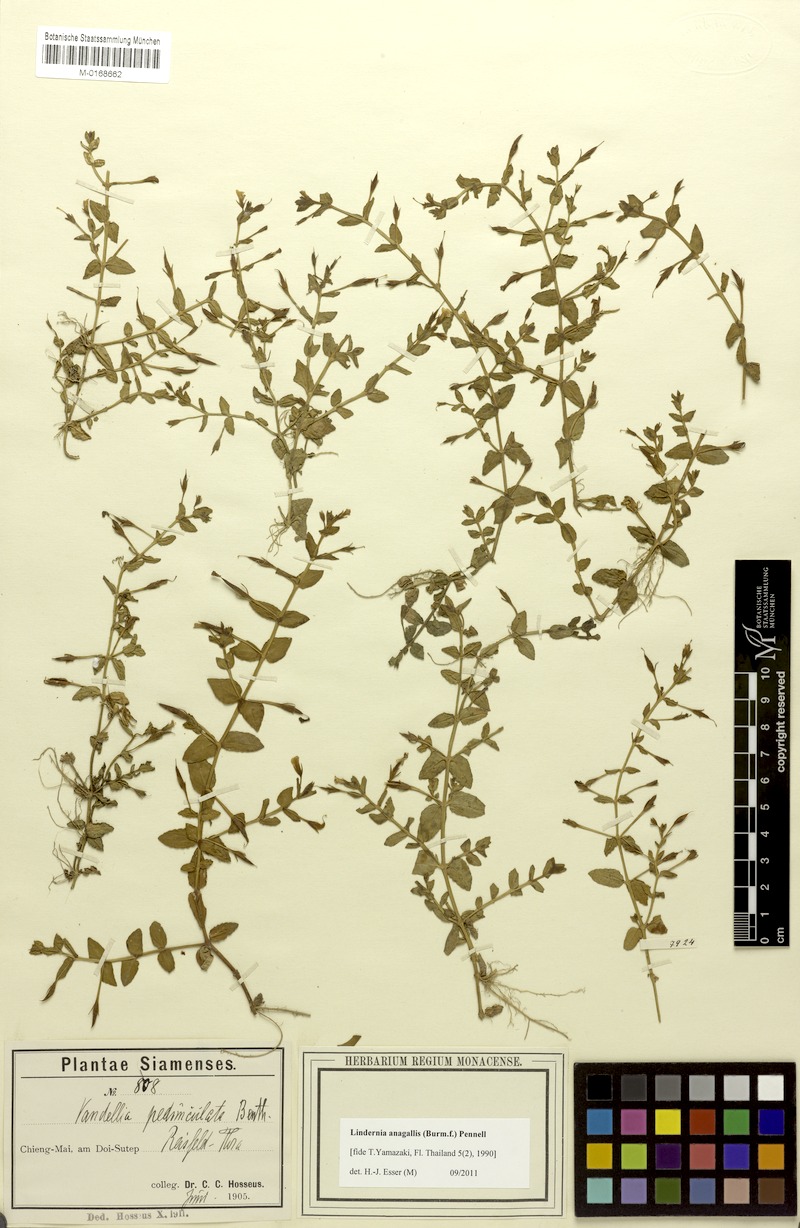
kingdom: Plantae
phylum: Tracheophyta
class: Magnoliopsida
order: Lamiales
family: Linderniaceae
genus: Torenia
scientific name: Torenia anagallis
